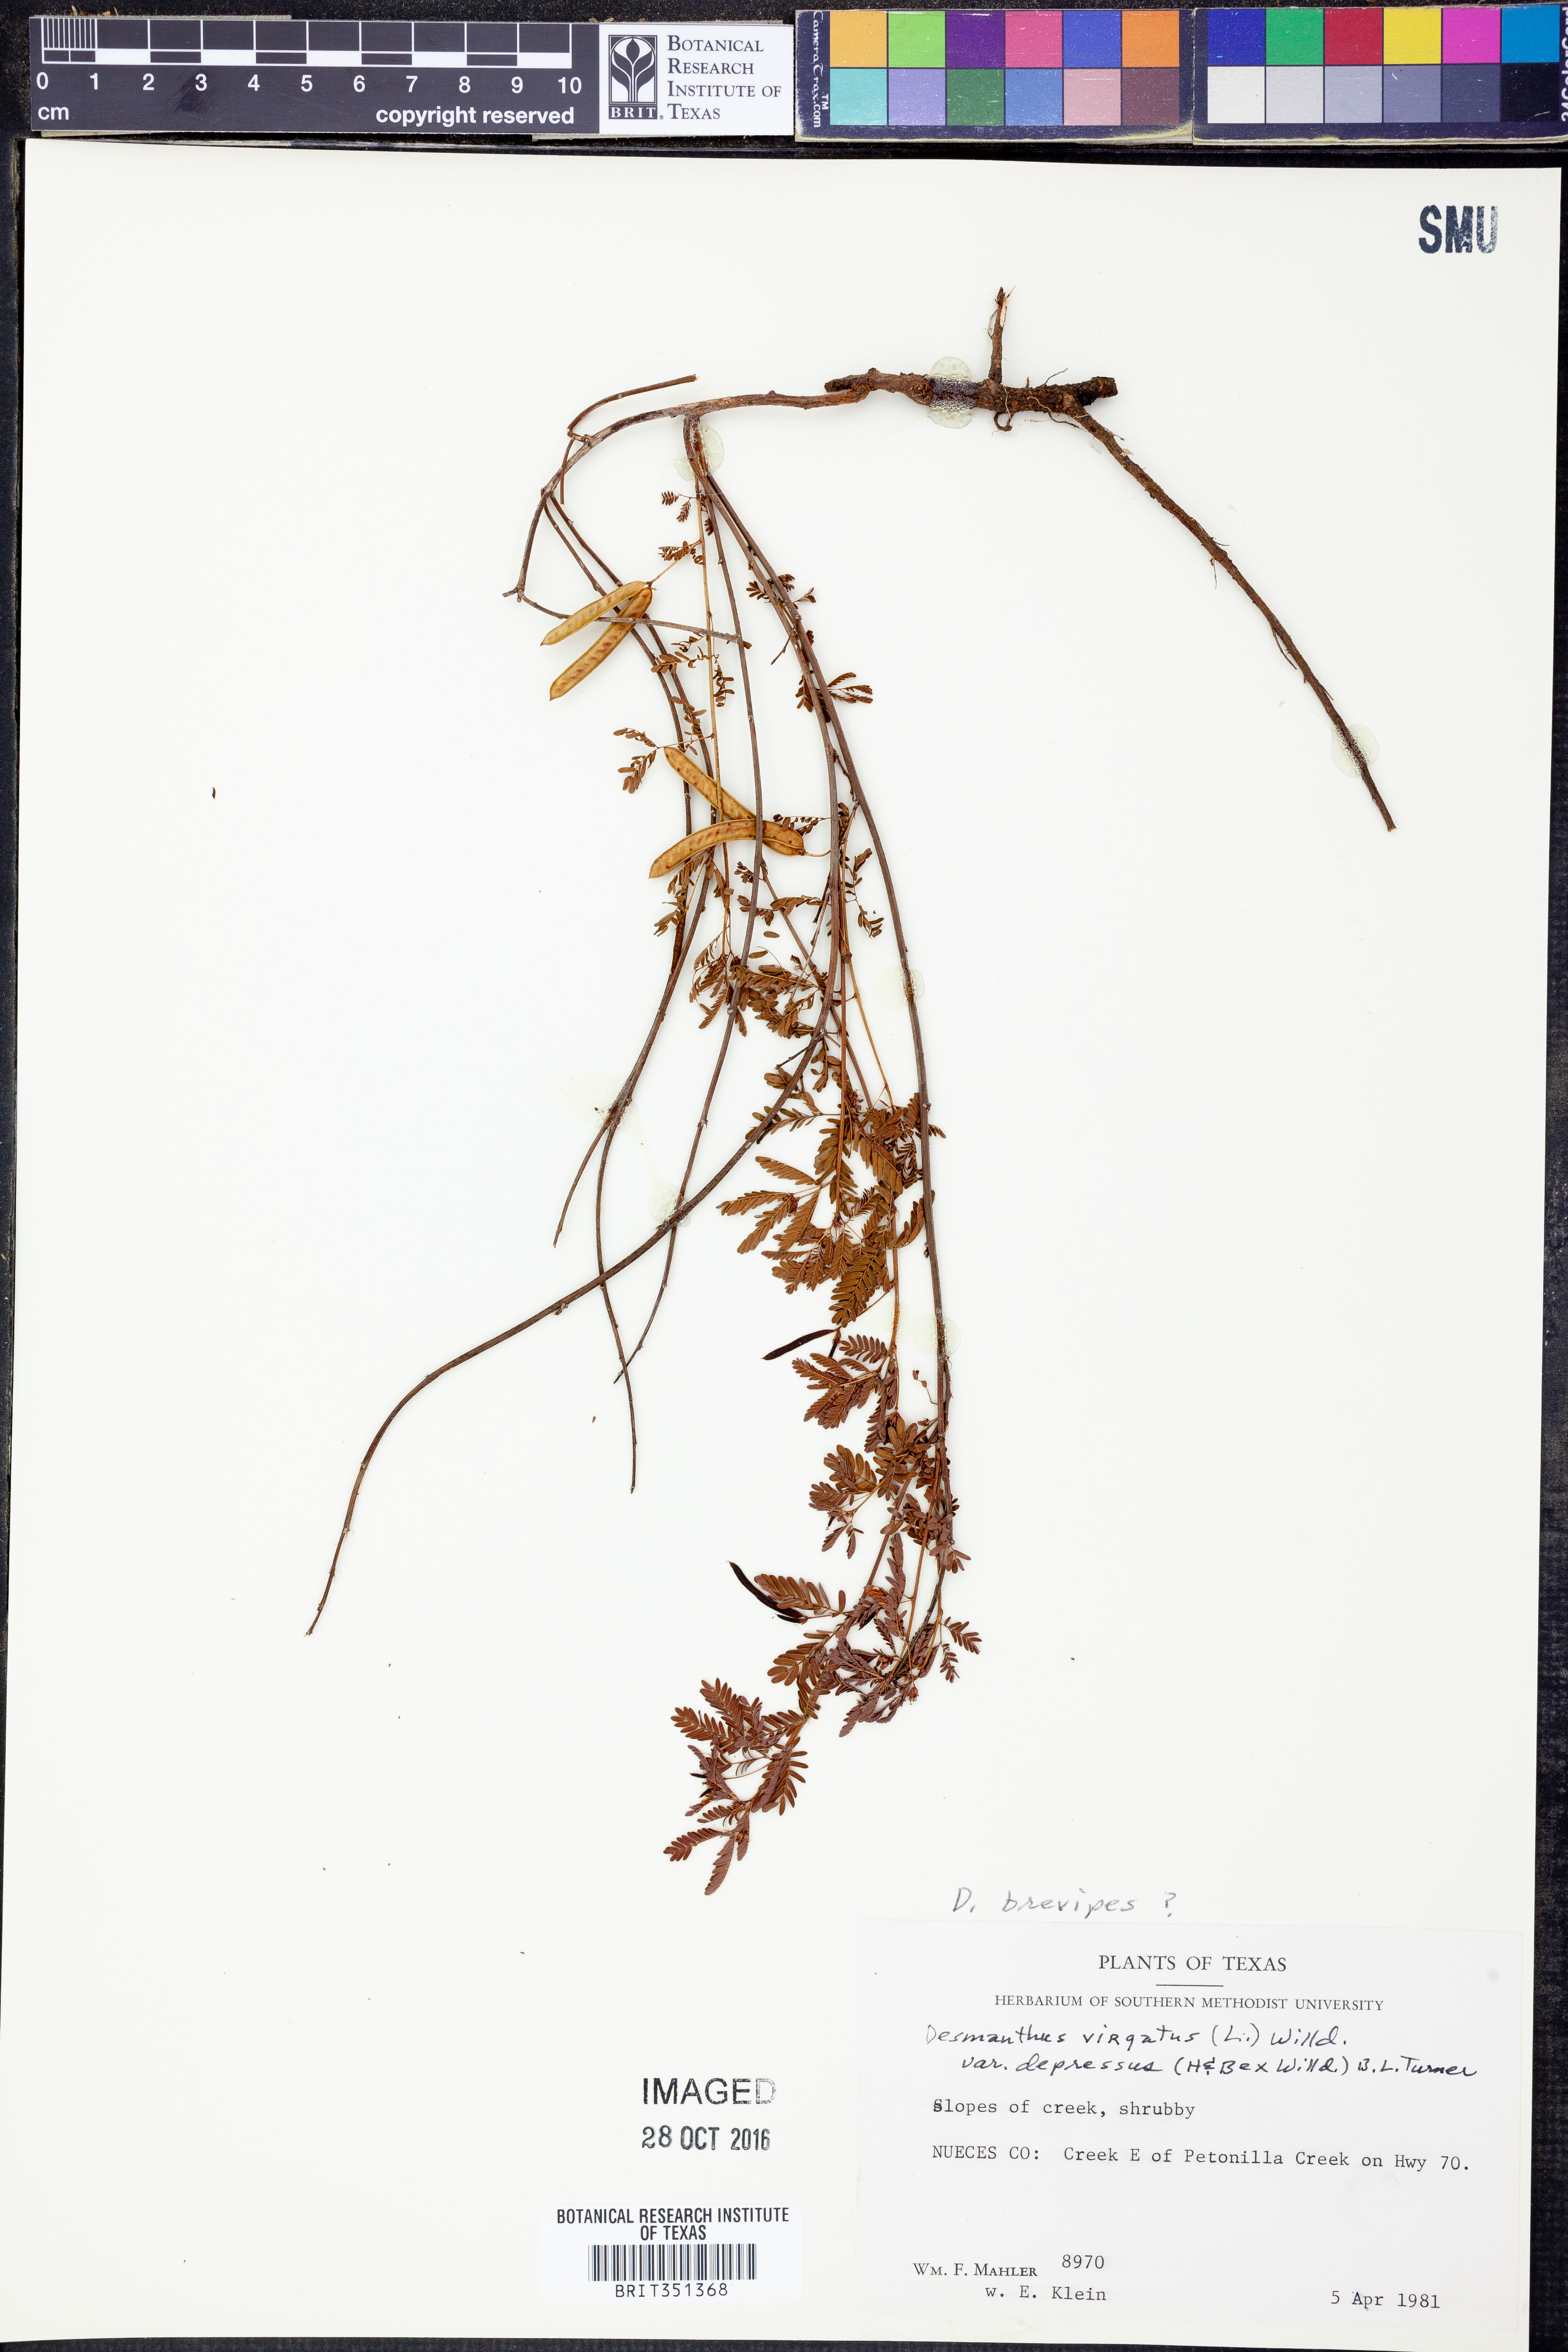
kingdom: Plantae
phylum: Tracheophyta
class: Magnoliopsida
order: Fabales
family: Fabaceae
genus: Desmanthus
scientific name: Desmanthus tatuhyensis
